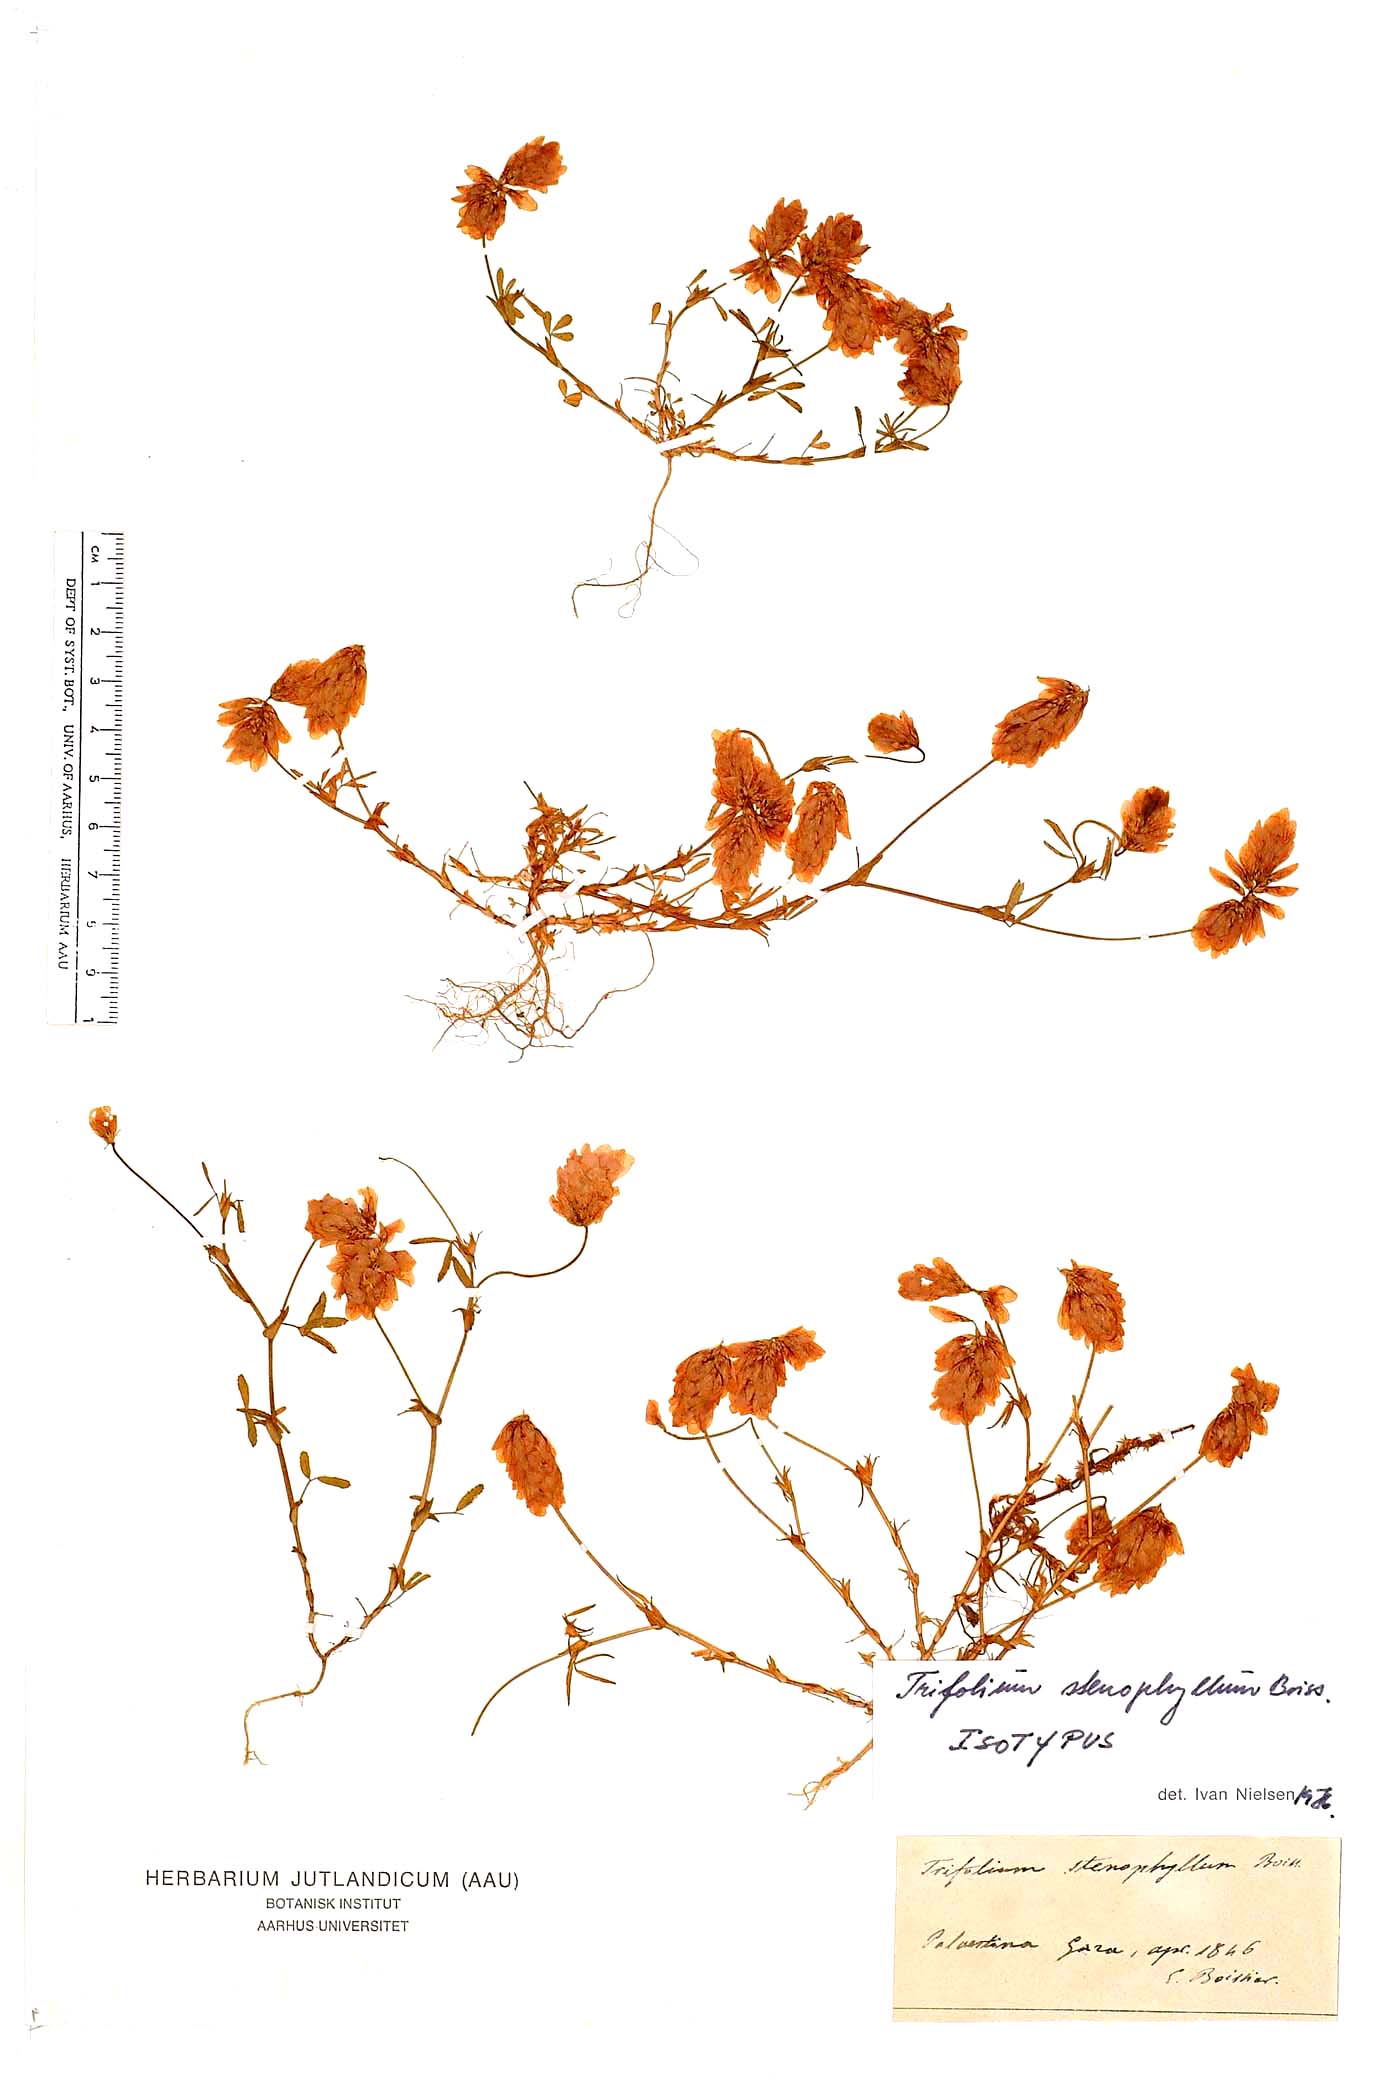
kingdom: Plantae
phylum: Tracheophyta
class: Magnoliopsida
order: Fabales
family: Fabaceae
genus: Trifolium
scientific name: Trifolium philistaeum
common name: Palestine clover
